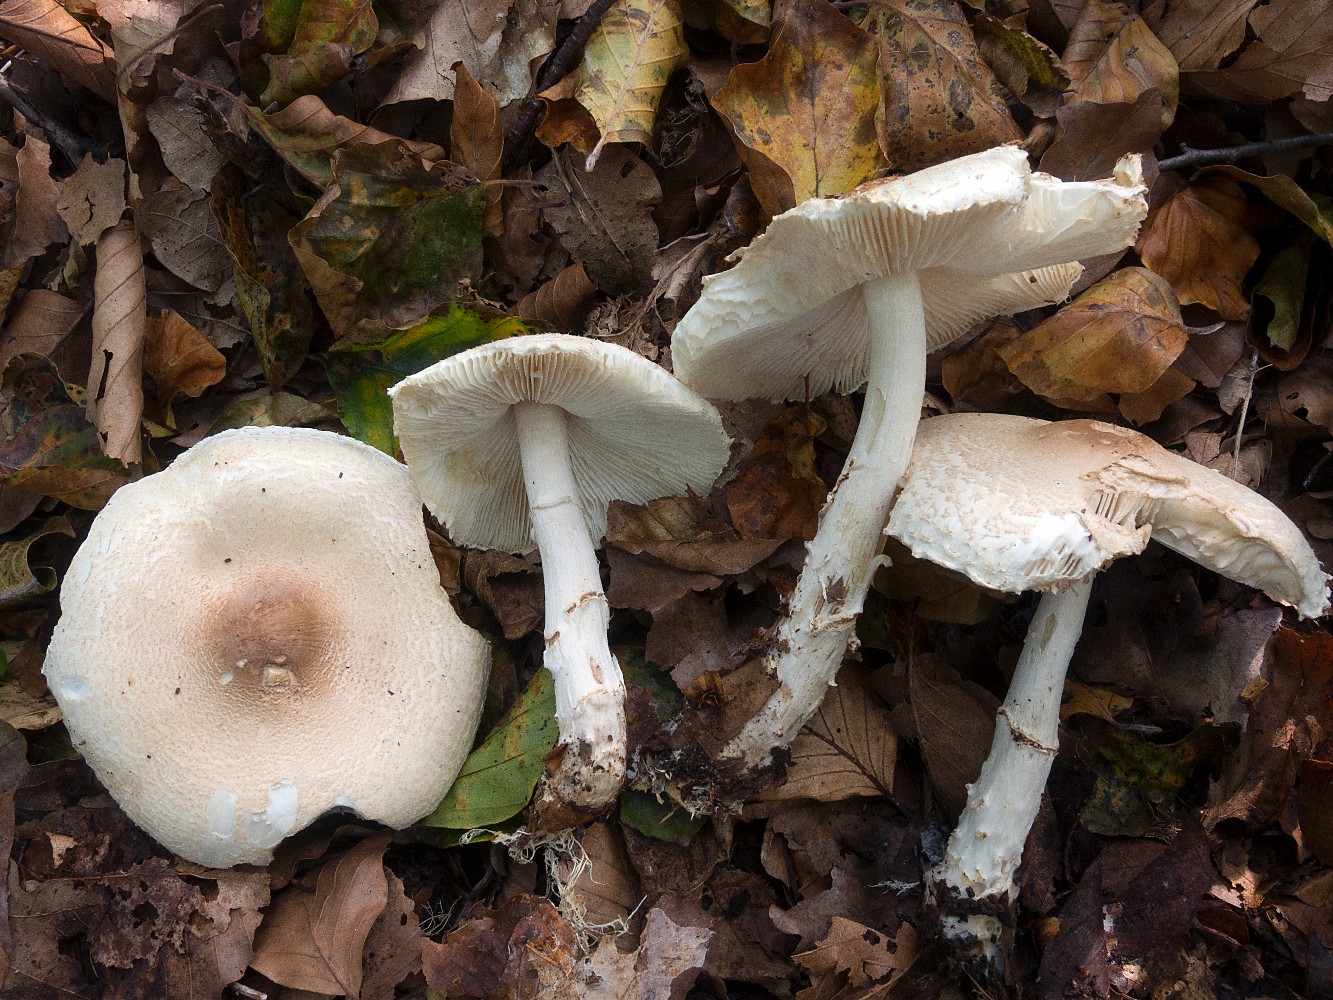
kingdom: Fungi
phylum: Basidiomycota
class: Agaricomycetes
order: Agaricales
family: Agaricaceae
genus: Lepiota
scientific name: Lepiota ignivolvata
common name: orangefodet parasolhat
